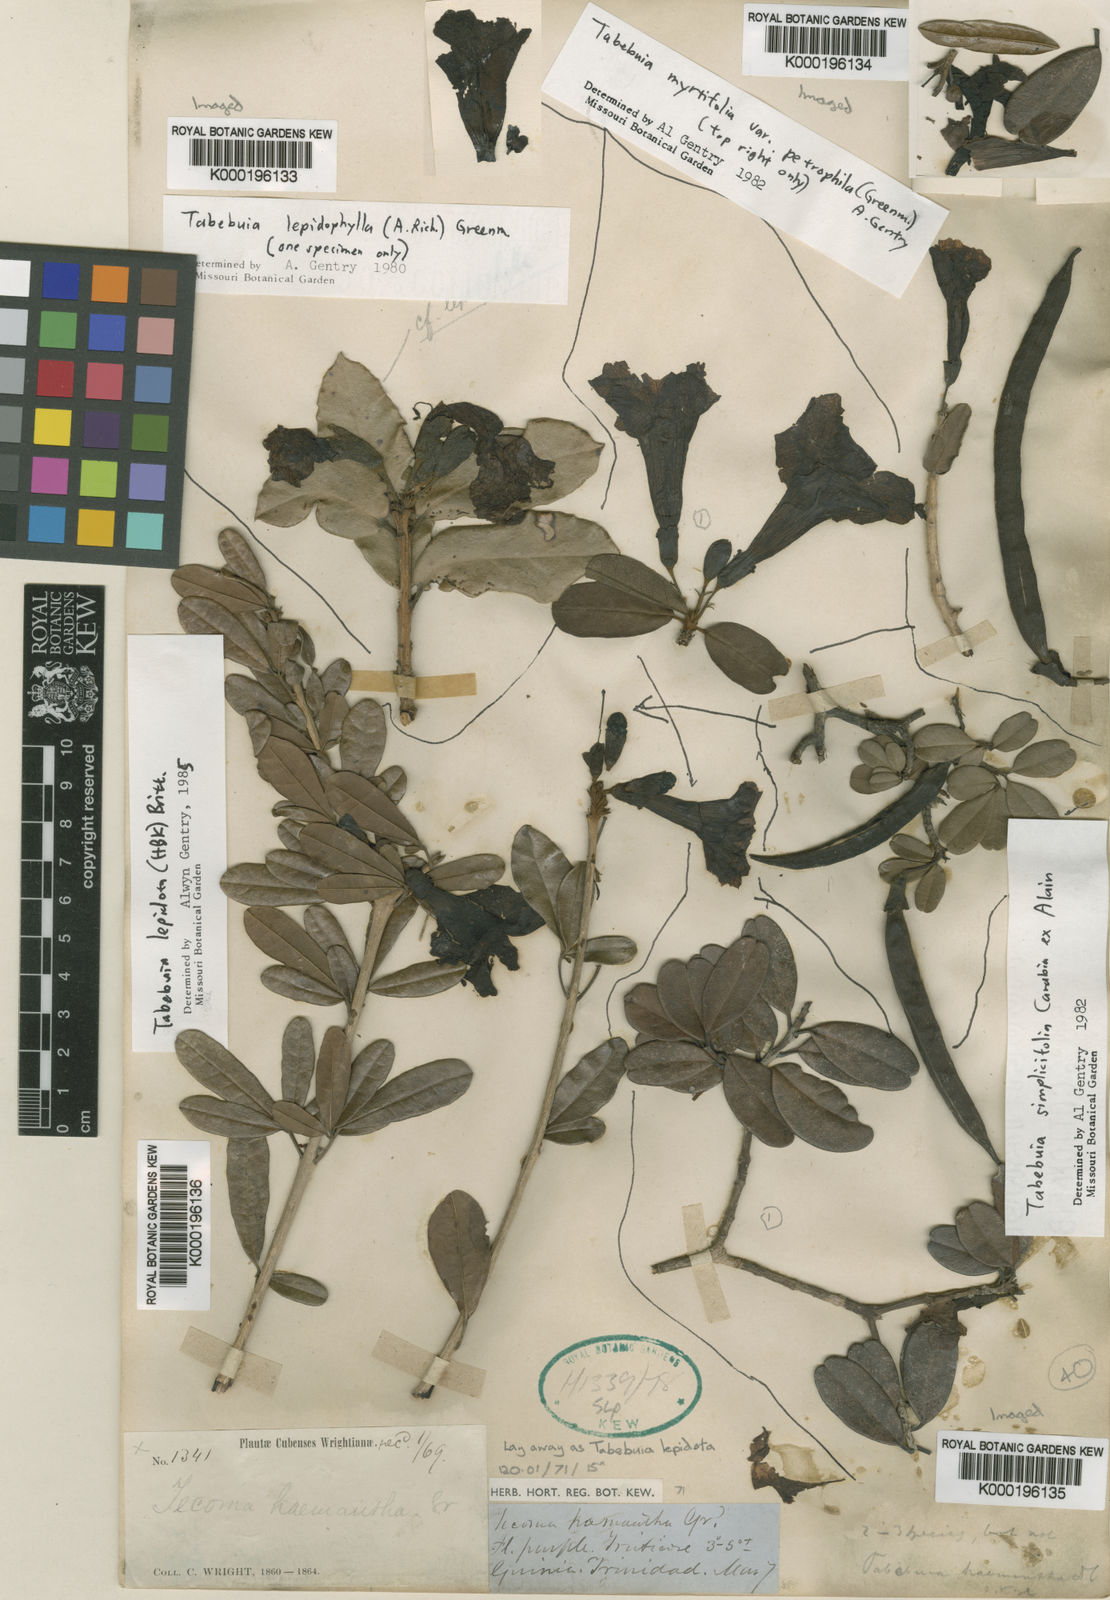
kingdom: Plantae
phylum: Tracheophyta
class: Magnoliopsida
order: Lamiales
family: Bignoniaceae
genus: Tabebuia
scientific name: Tabebuia myrtifolia
